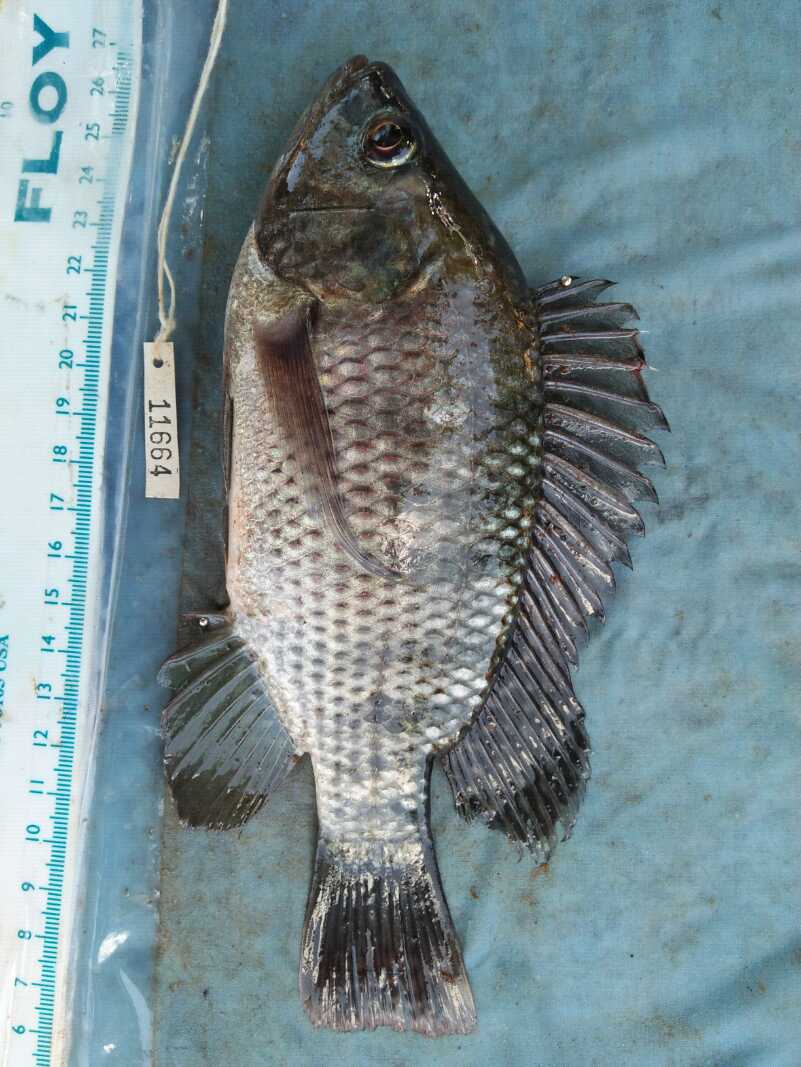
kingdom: Animalia
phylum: Chordata
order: Perciformes
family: Cichlidae
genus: Oreochromis
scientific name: Oreochromis niloticus
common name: Nile tilapia
